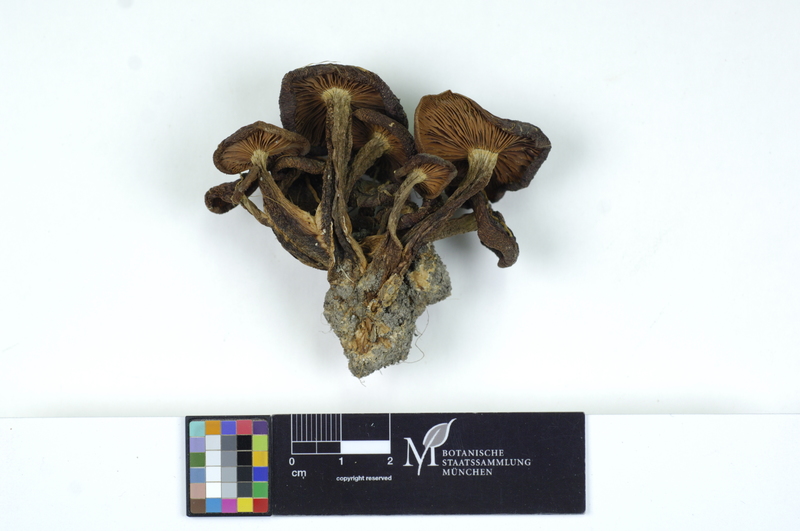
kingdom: Fungi
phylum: Basidiomycota
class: Agaricomycetes
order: Agaricales
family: Lyophyllaceae
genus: Lyophyllum
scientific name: Lyophyllum decastes
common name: Clustered domecap
